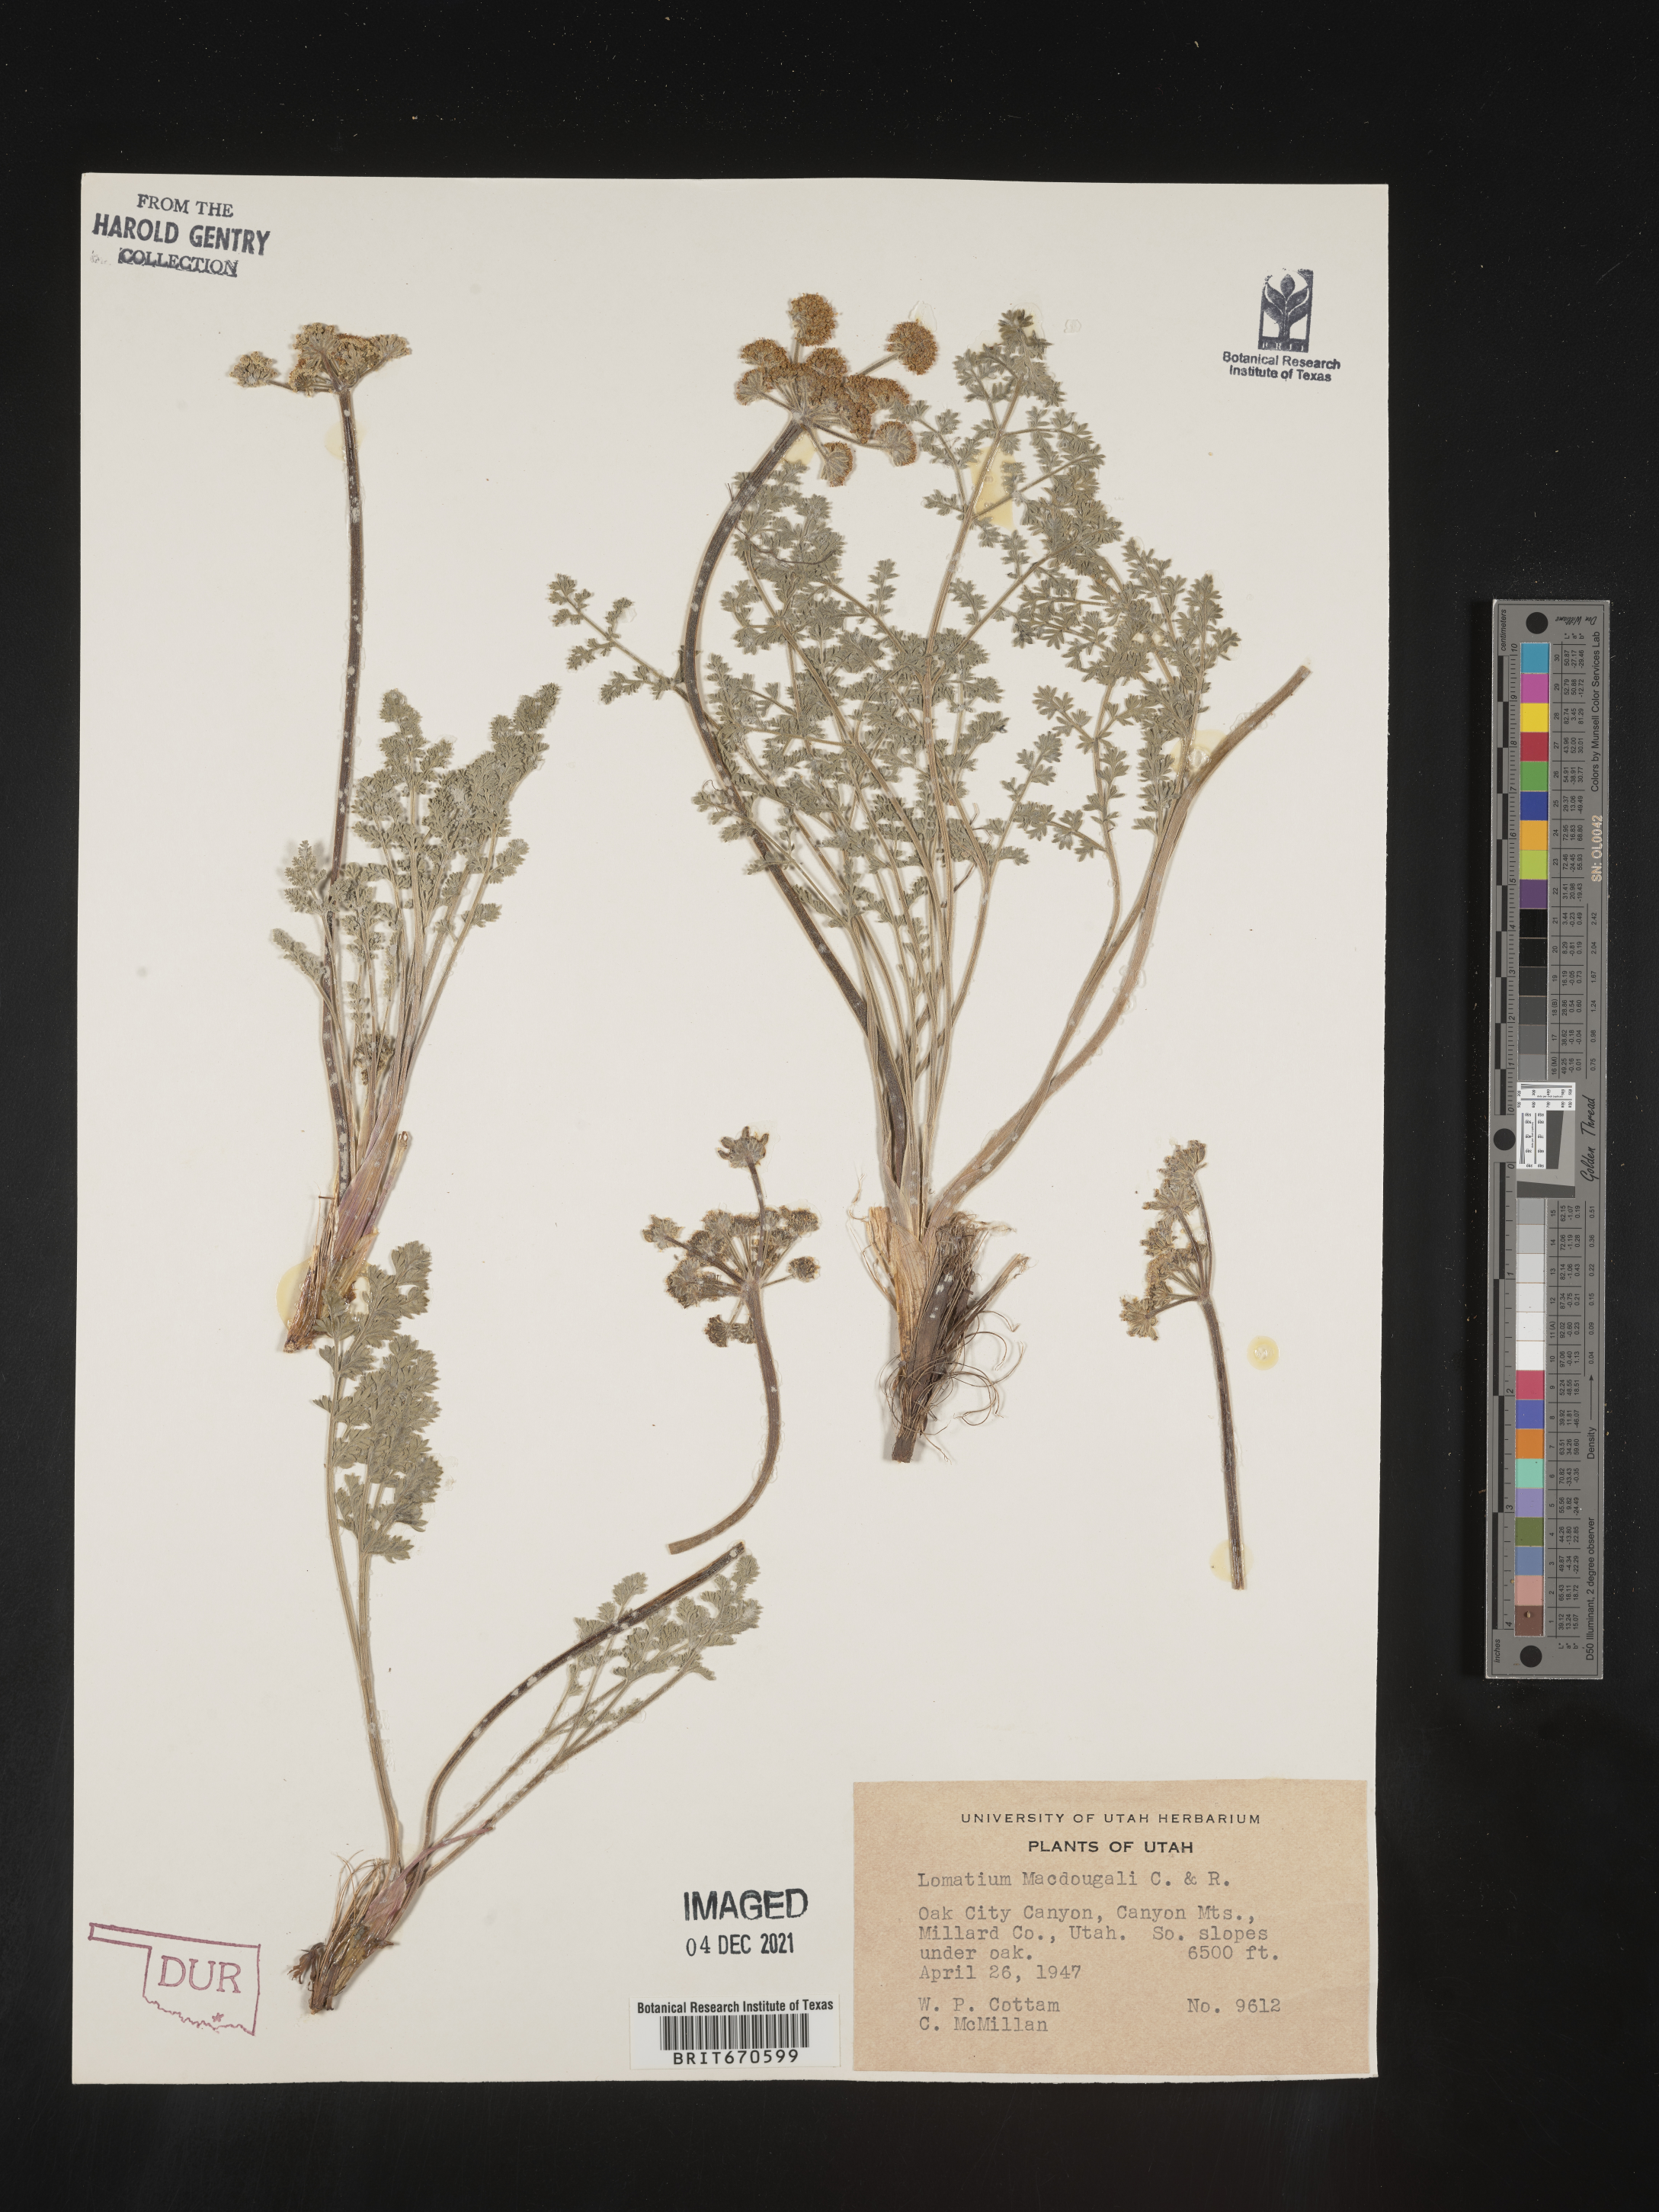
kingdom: Plantae
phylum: Tracheophyta
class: Magnoliopsida
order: Apiales
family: Apiaceae
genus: Lomatium
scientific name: Lomatium foeniculaceum
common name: Desert-parsley
